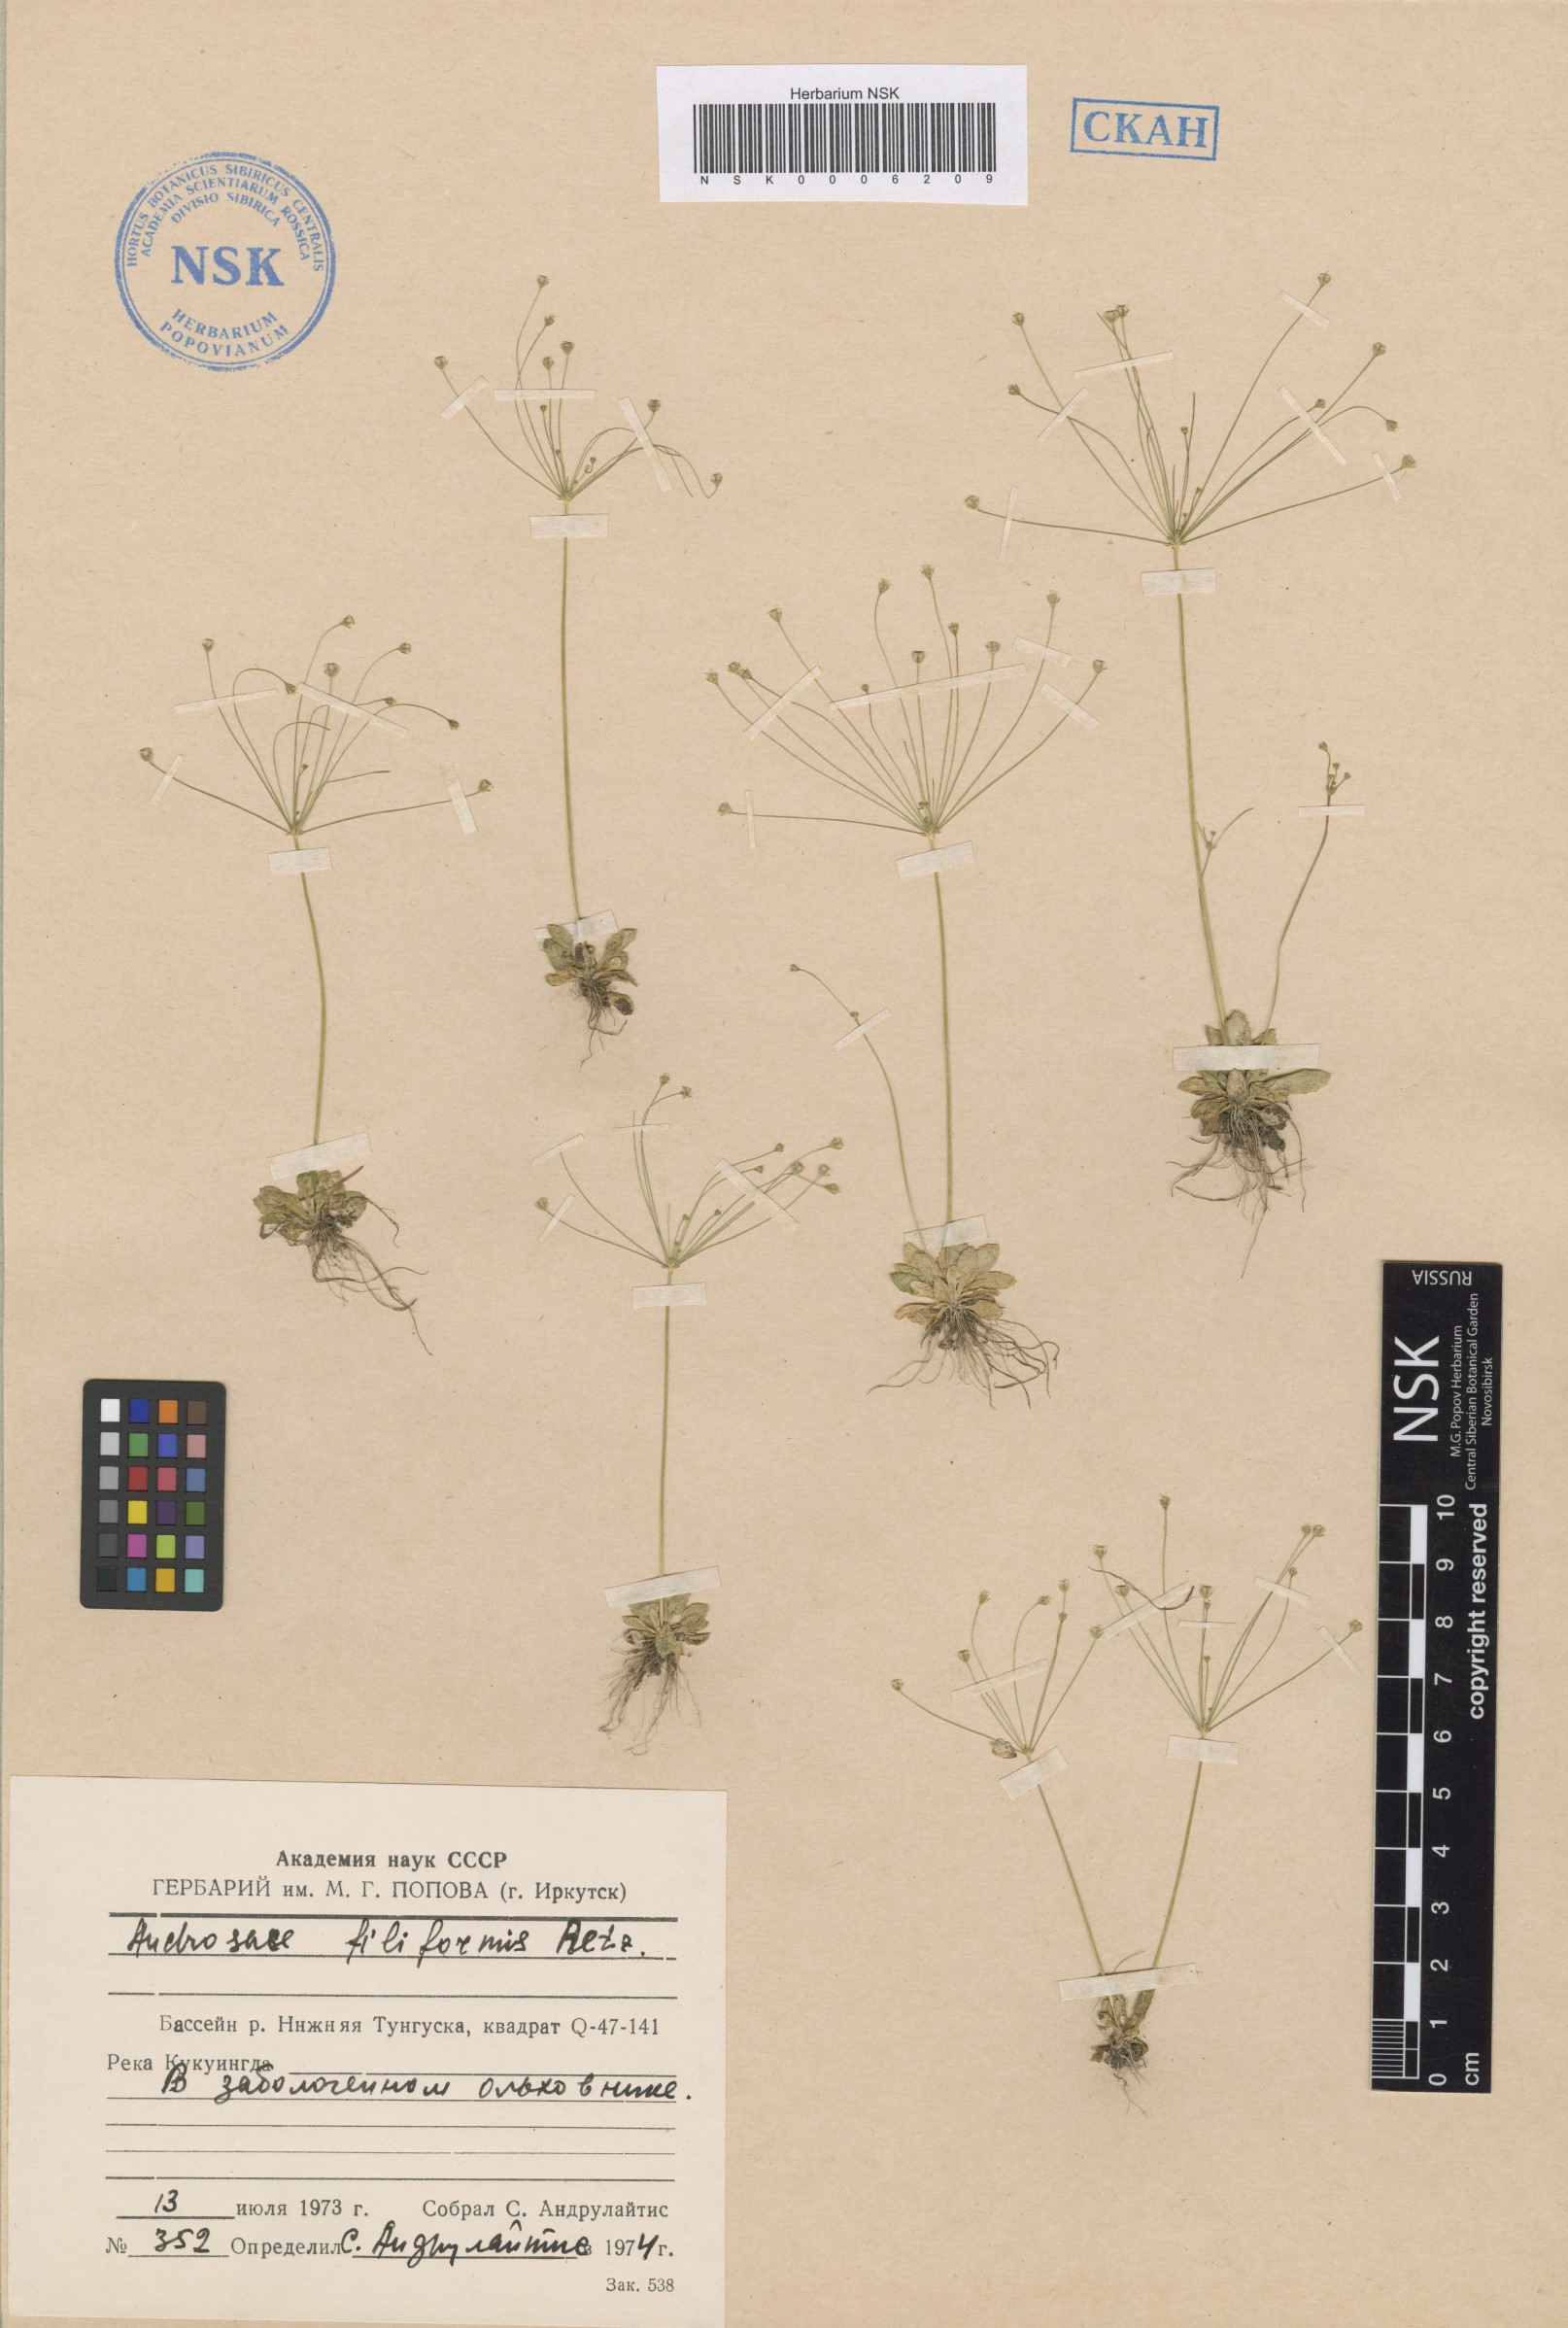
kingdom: Plantae
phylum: Tracheophyta
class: Magnoliopsida
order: Ericales
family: Primulaceae
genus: Androsace
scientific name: Androsace filiformis
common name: Filiform rock jasmine
